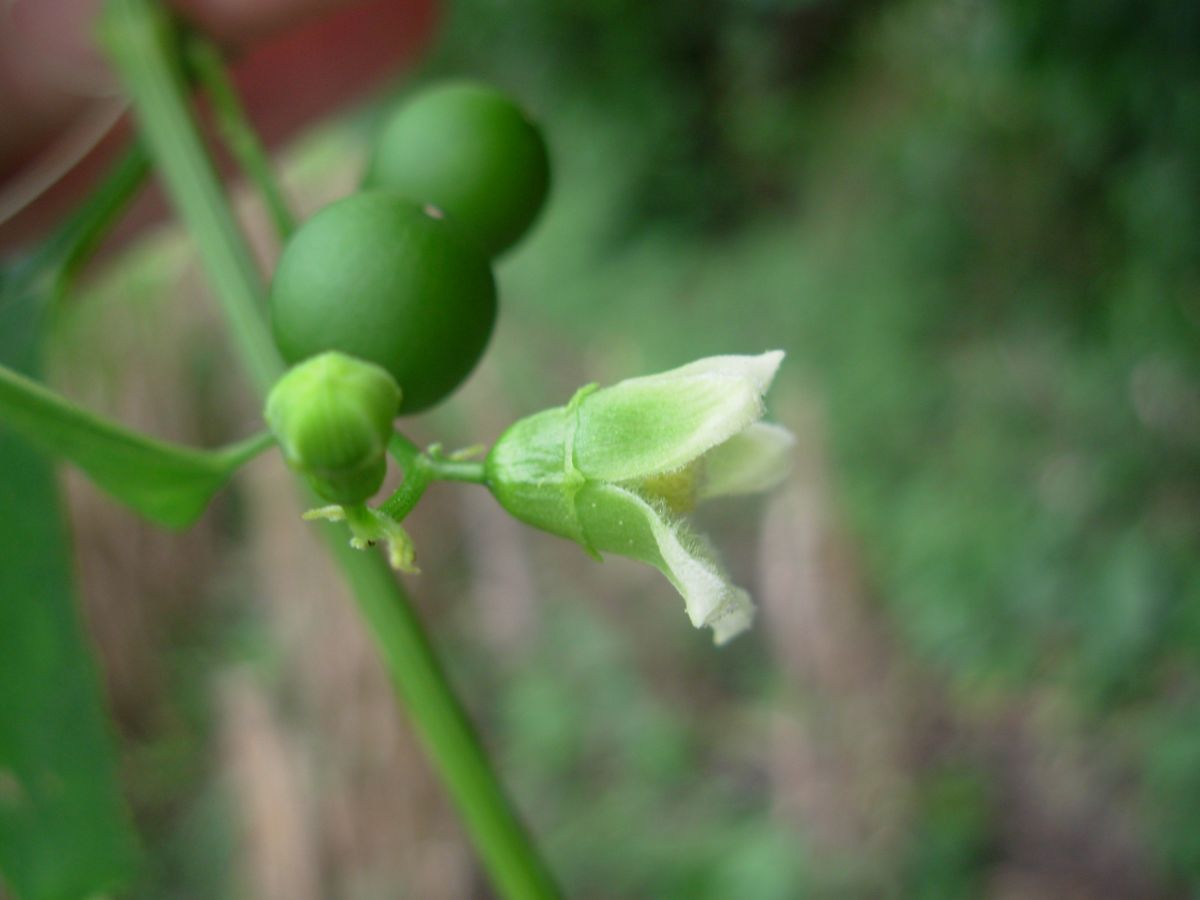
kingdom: Plantae
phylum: Tracheophyta
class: Magnoliopsida
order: Cucurbitales
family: Cucurbitaceae
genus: Cayaponia
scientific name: Cayaponia attenuata
